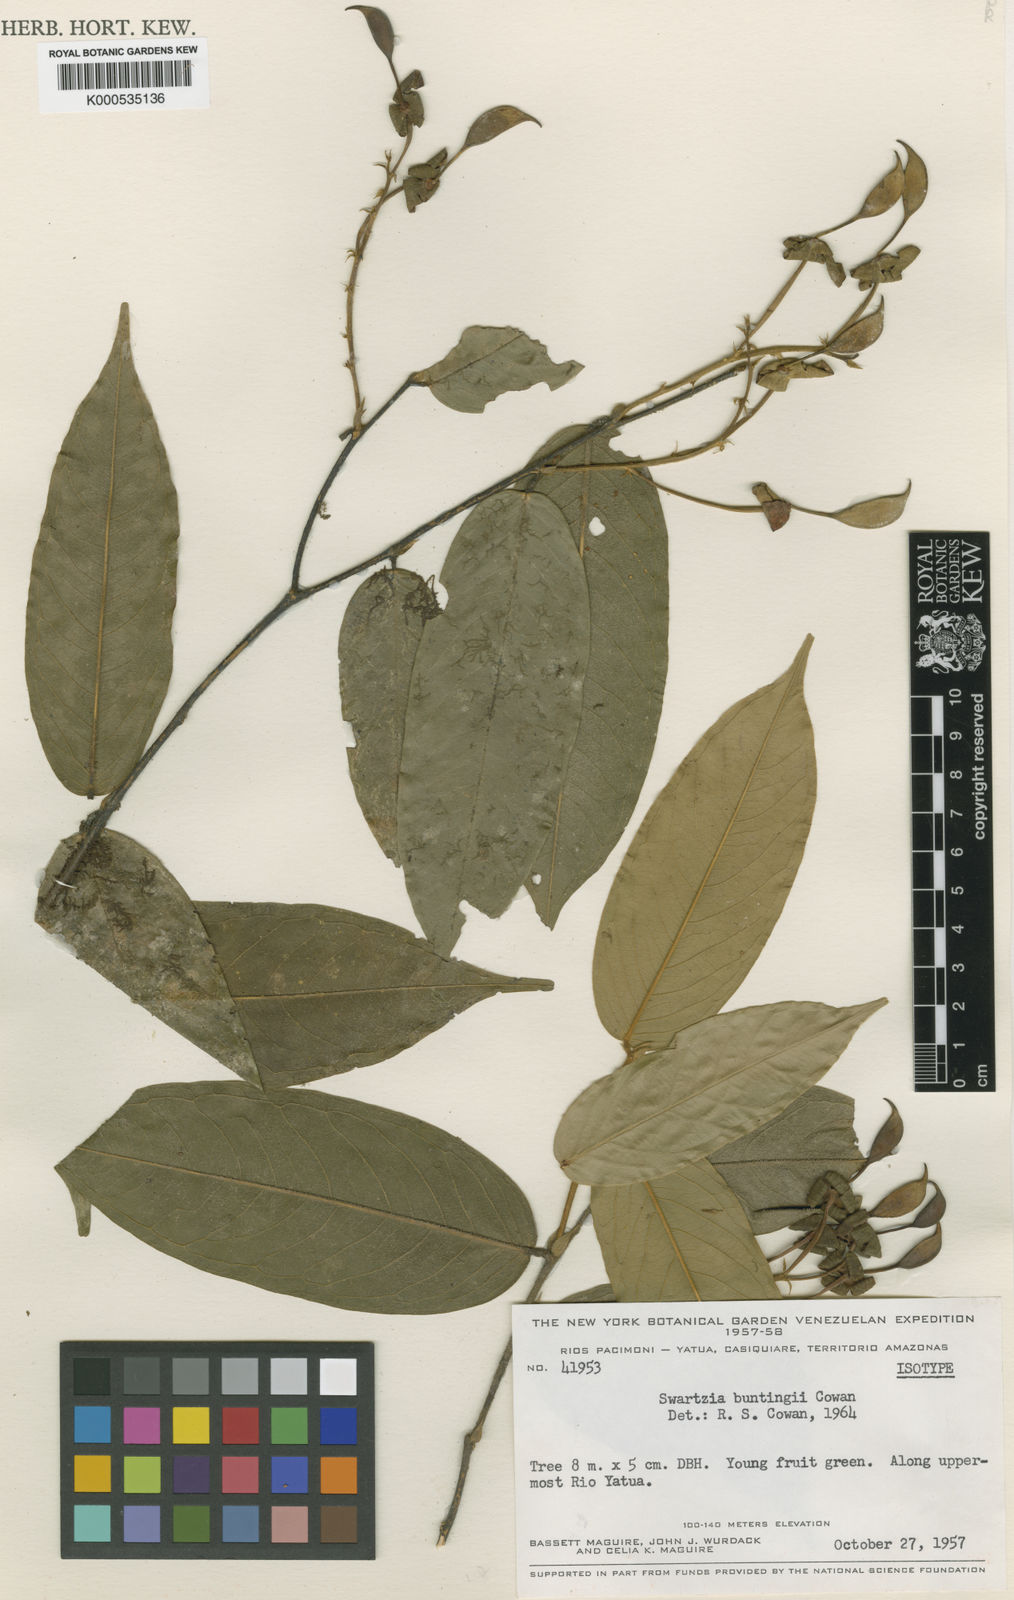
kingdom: Plantae
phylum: Tracheophyta
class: Magnoliopsida
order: Fabales
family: Fabaceae
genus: Swartzia
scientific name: Swartzia buntingii
